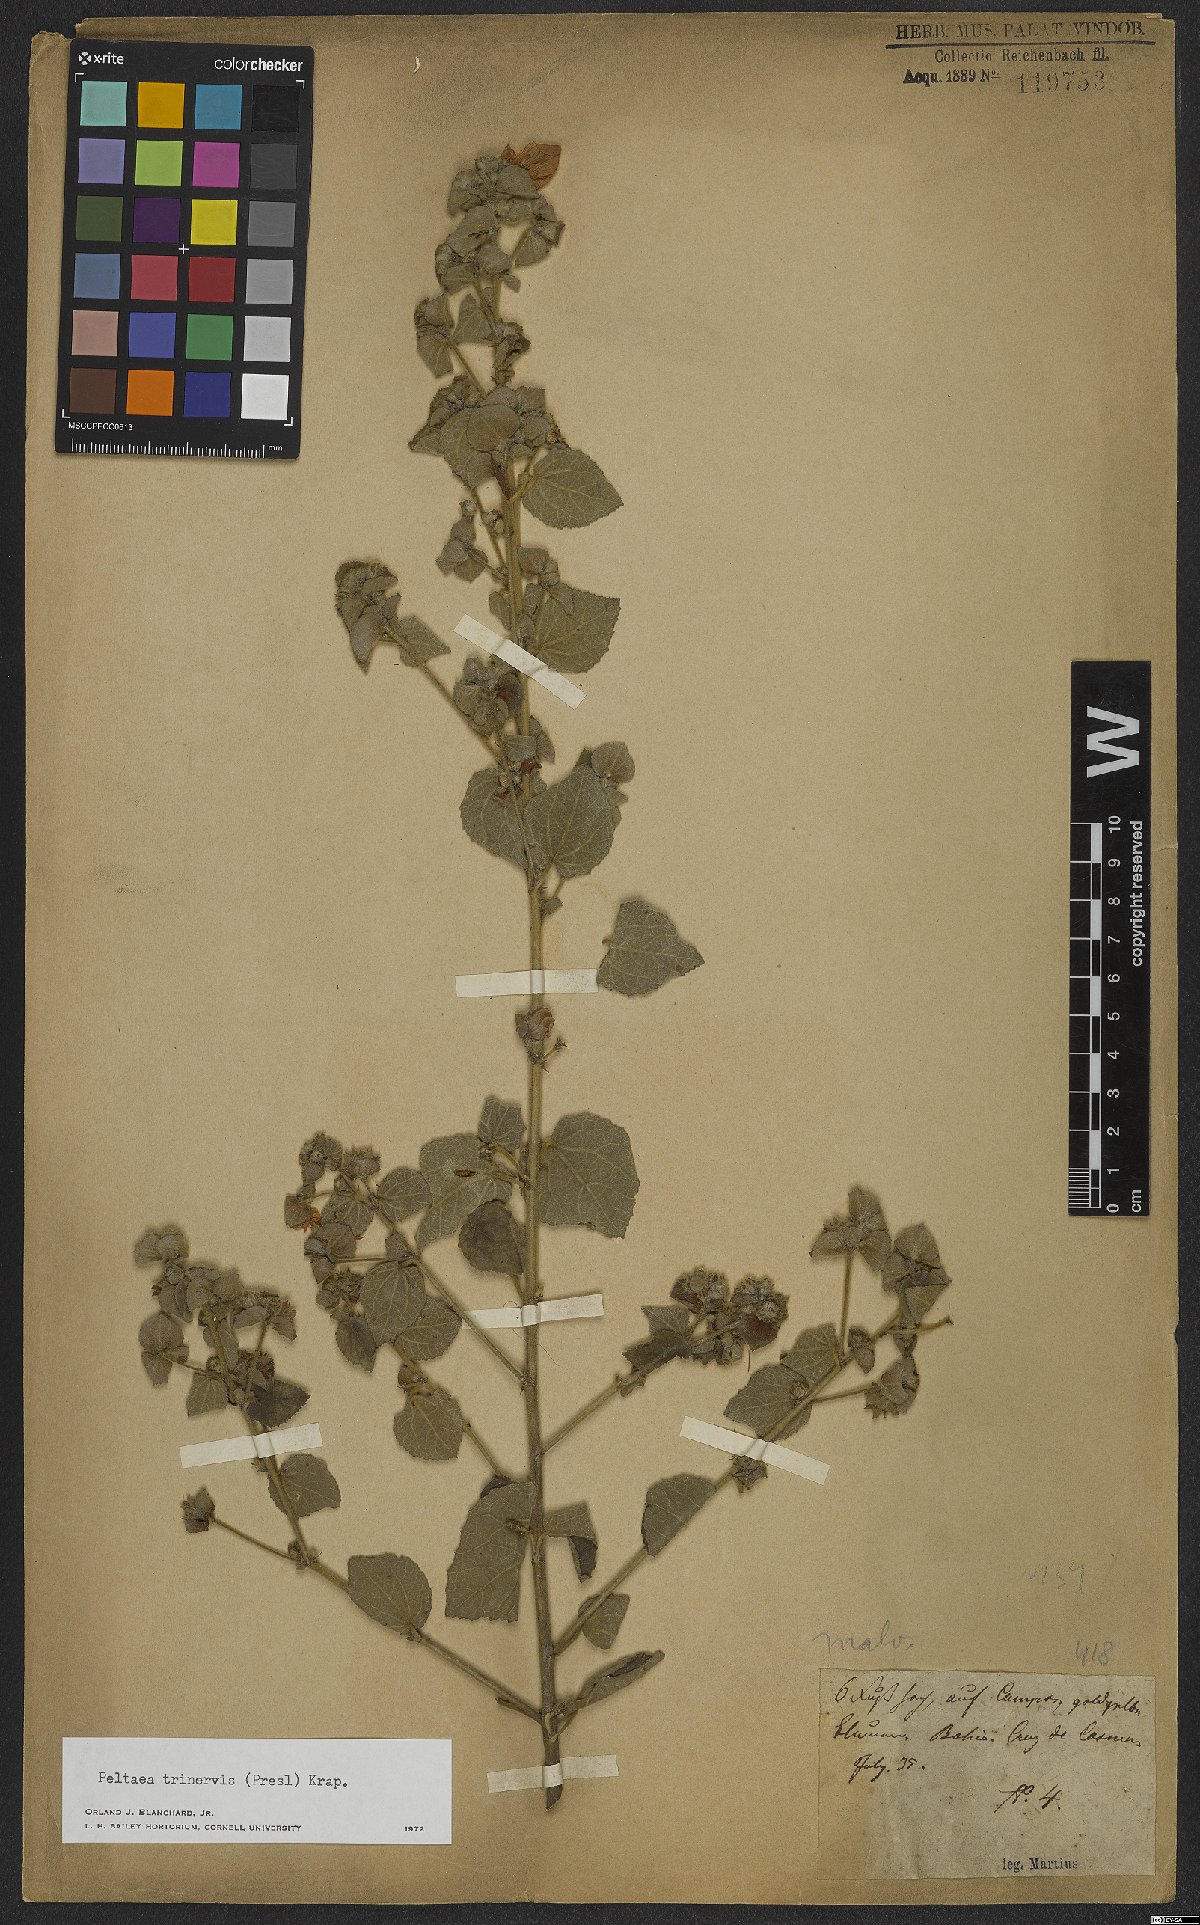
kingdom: Plantae
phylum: Tracheophyta
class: Magnoliopsida
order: Malvales
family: Malvaceae
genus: Peltaea
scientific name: Peltaea trinervis
